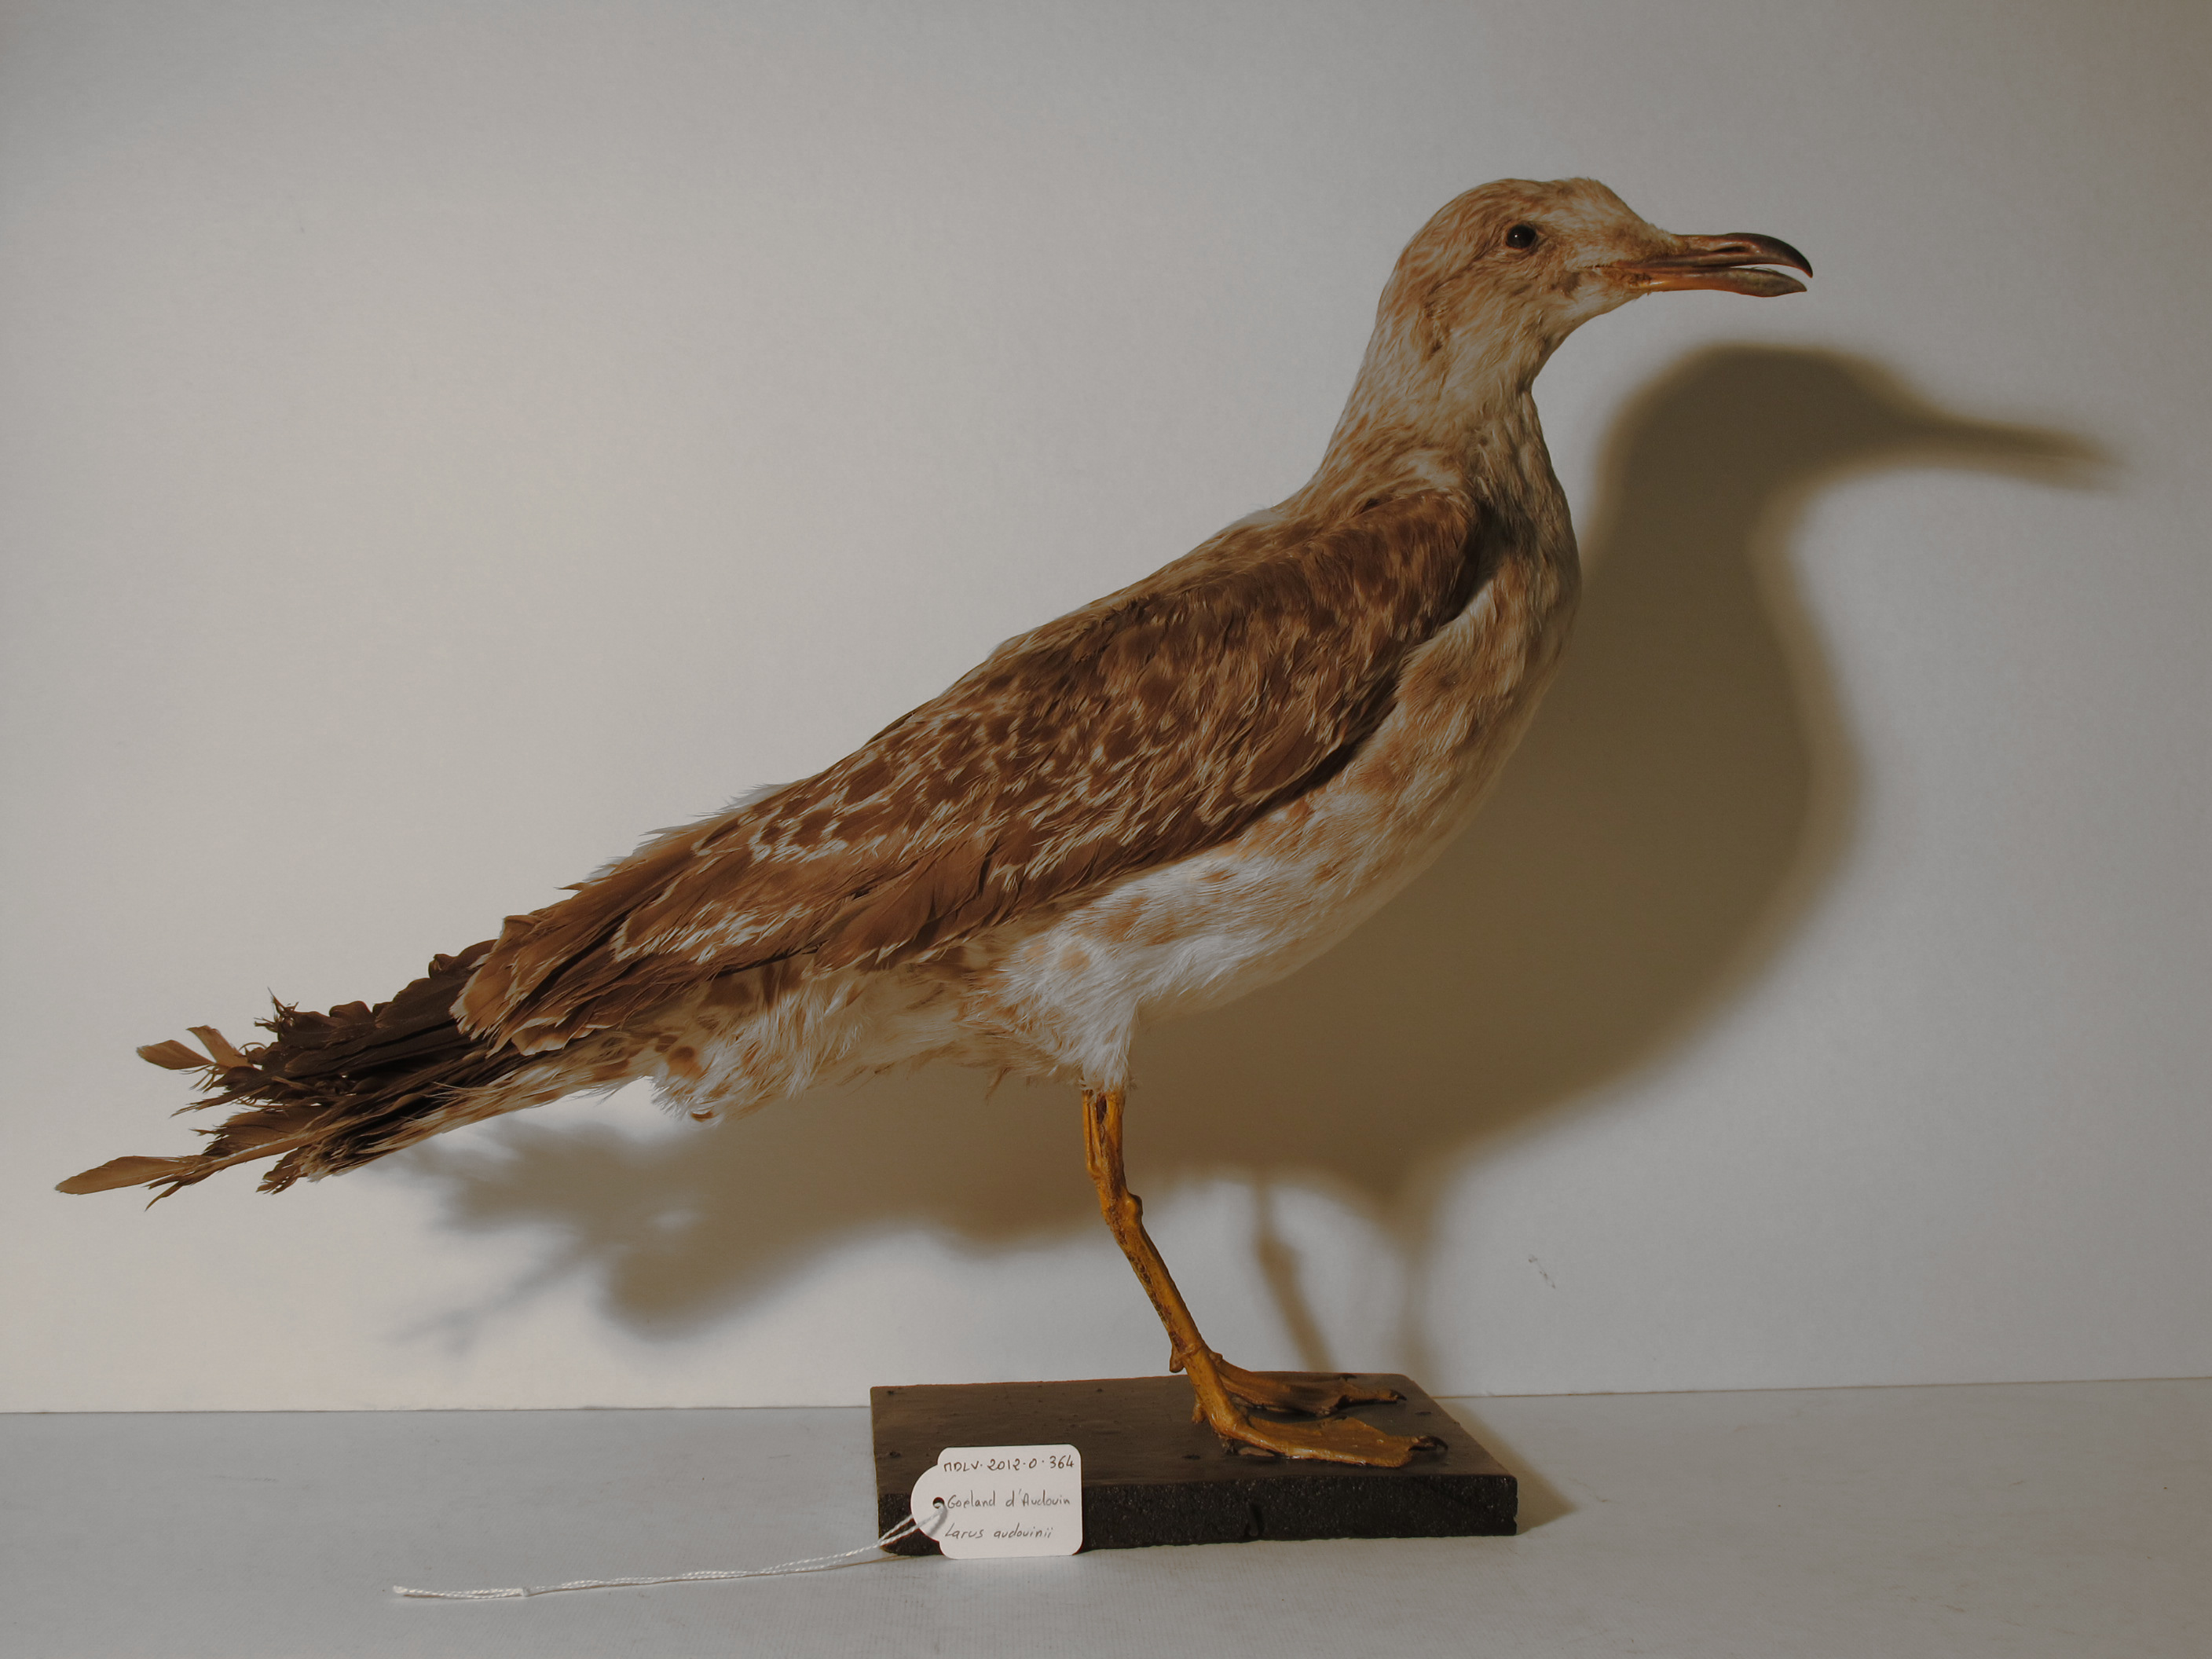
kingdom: Animalia
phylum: Chordata
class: Aves
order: Charadriiformes
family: Laridae
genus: Ichthyaetus
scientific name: Ichthyaetus audouinii
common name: Audouin's Gull
